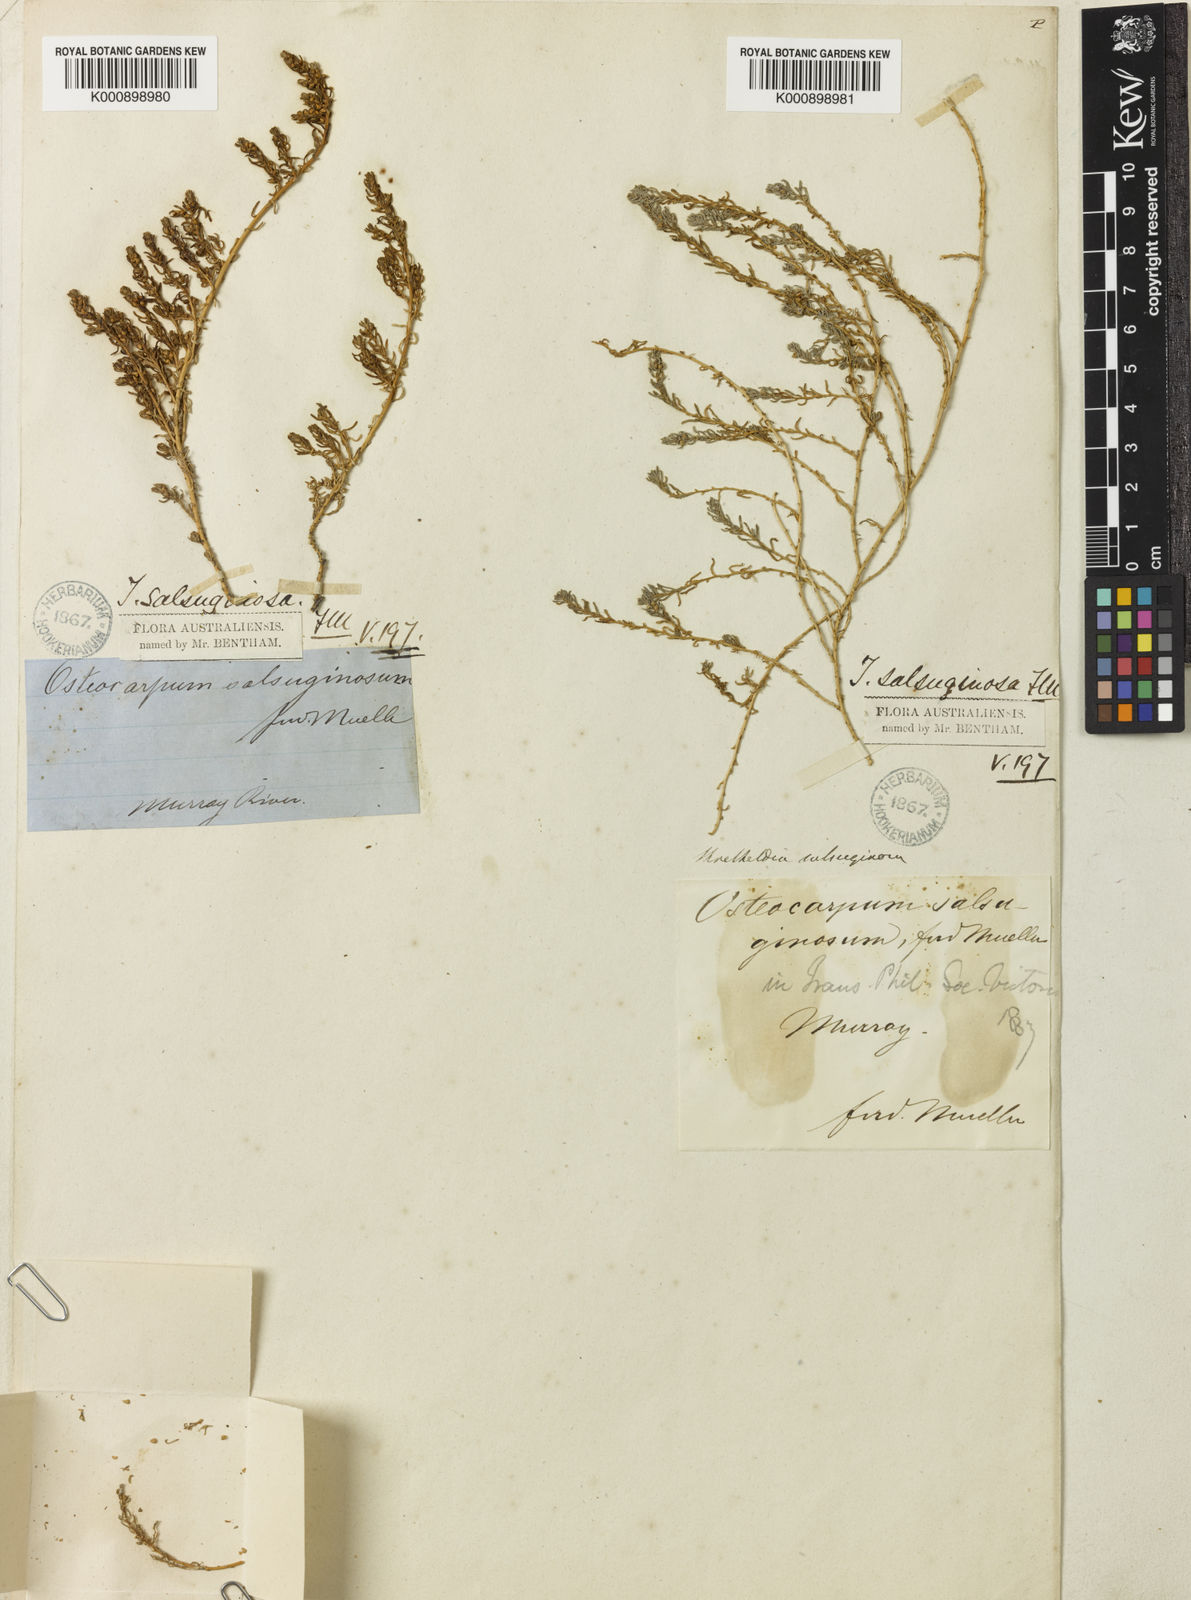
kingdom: Plantae
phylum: Tracheophyta
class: Magnoliopsida
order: Caryophyllales
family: Amaranthaceae
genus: Osteocarpum
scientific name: Osteocarpum salsuginosum
